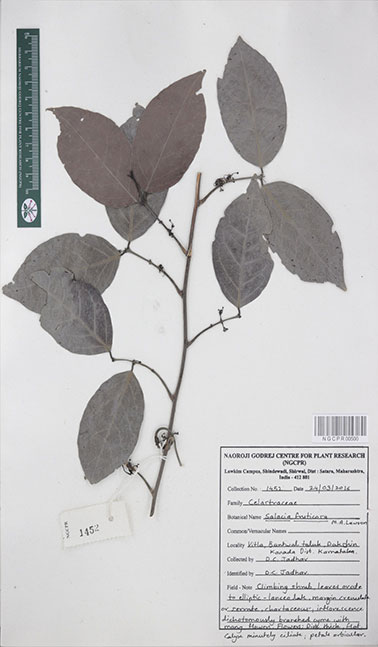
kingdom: Plantae
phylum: Tracheophyta
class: Magnoliopsida
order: Celastrales
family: Celastraceae
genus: Salacia
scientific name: Salacia fruticosa
